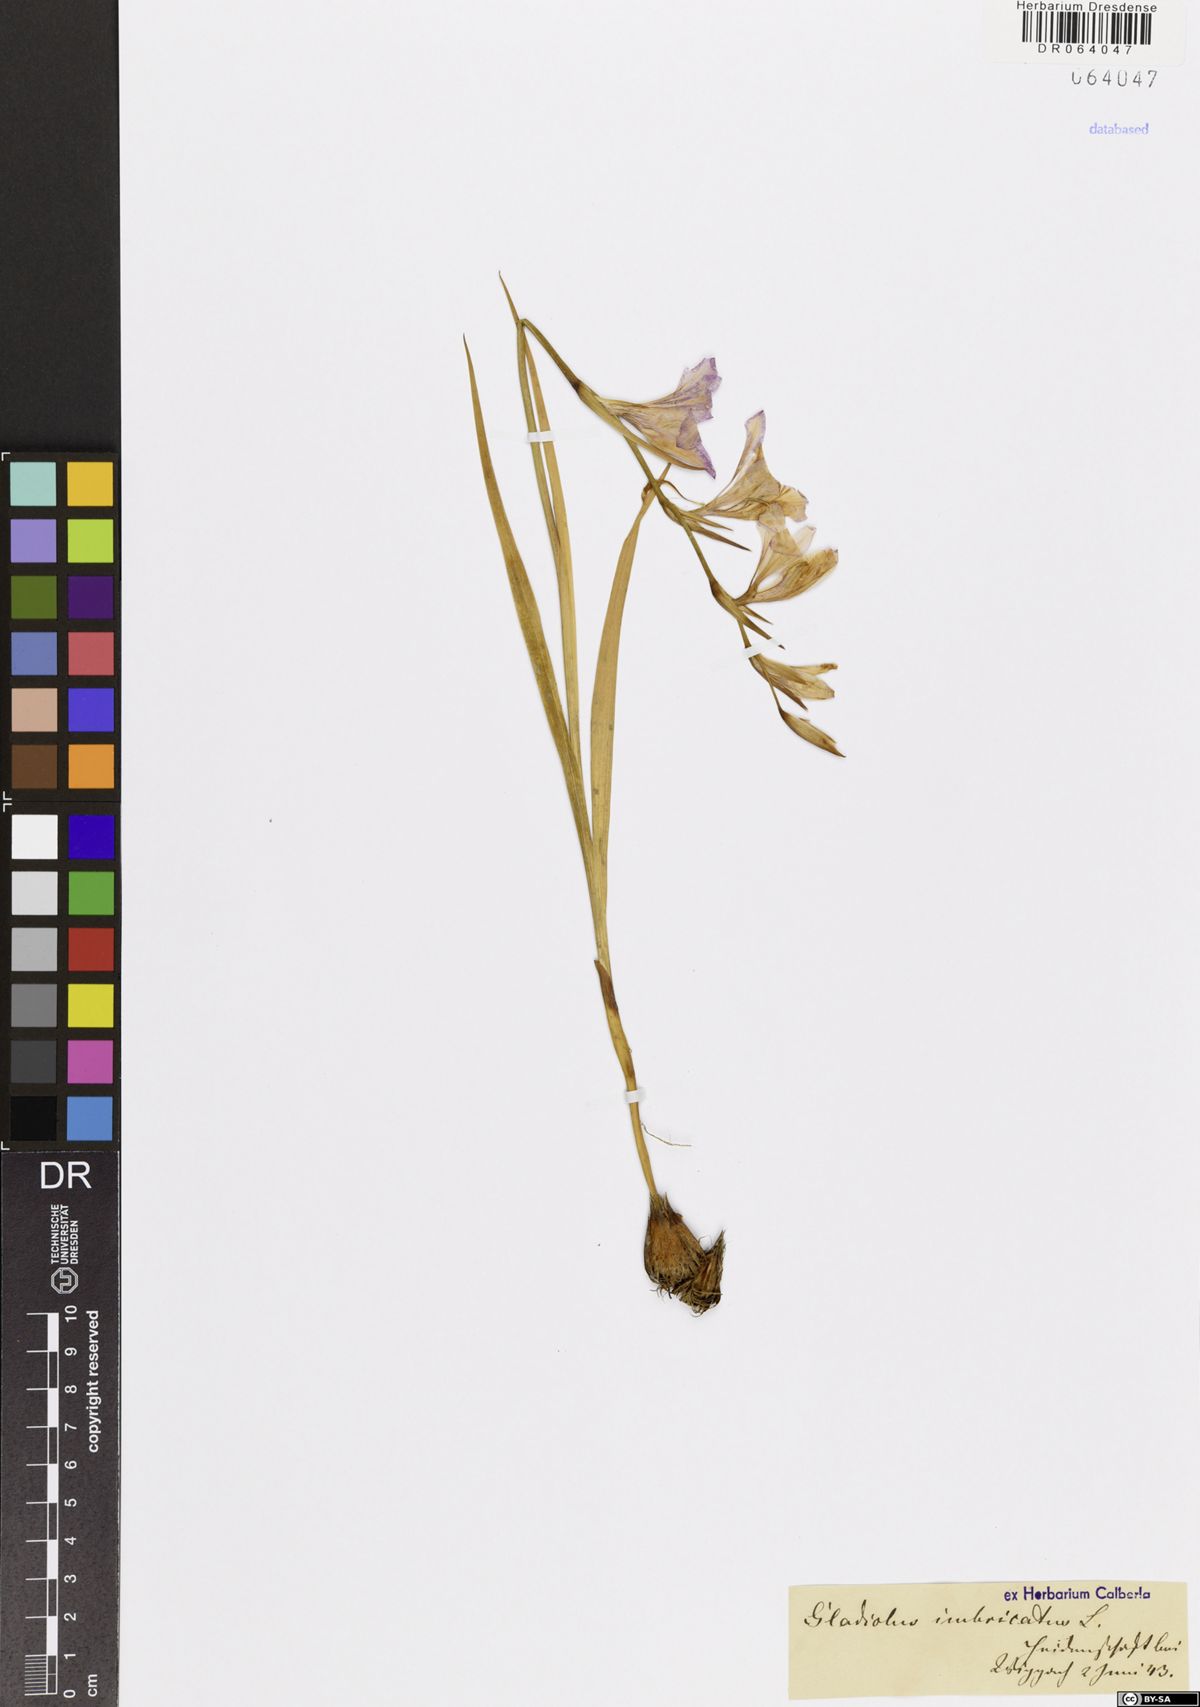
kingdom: Plantae
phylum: Tracheophyta
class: Liliopsida
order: Asparagales
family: Iridaceae
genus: Gladiolus
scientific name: Gladiolus imbricatus
